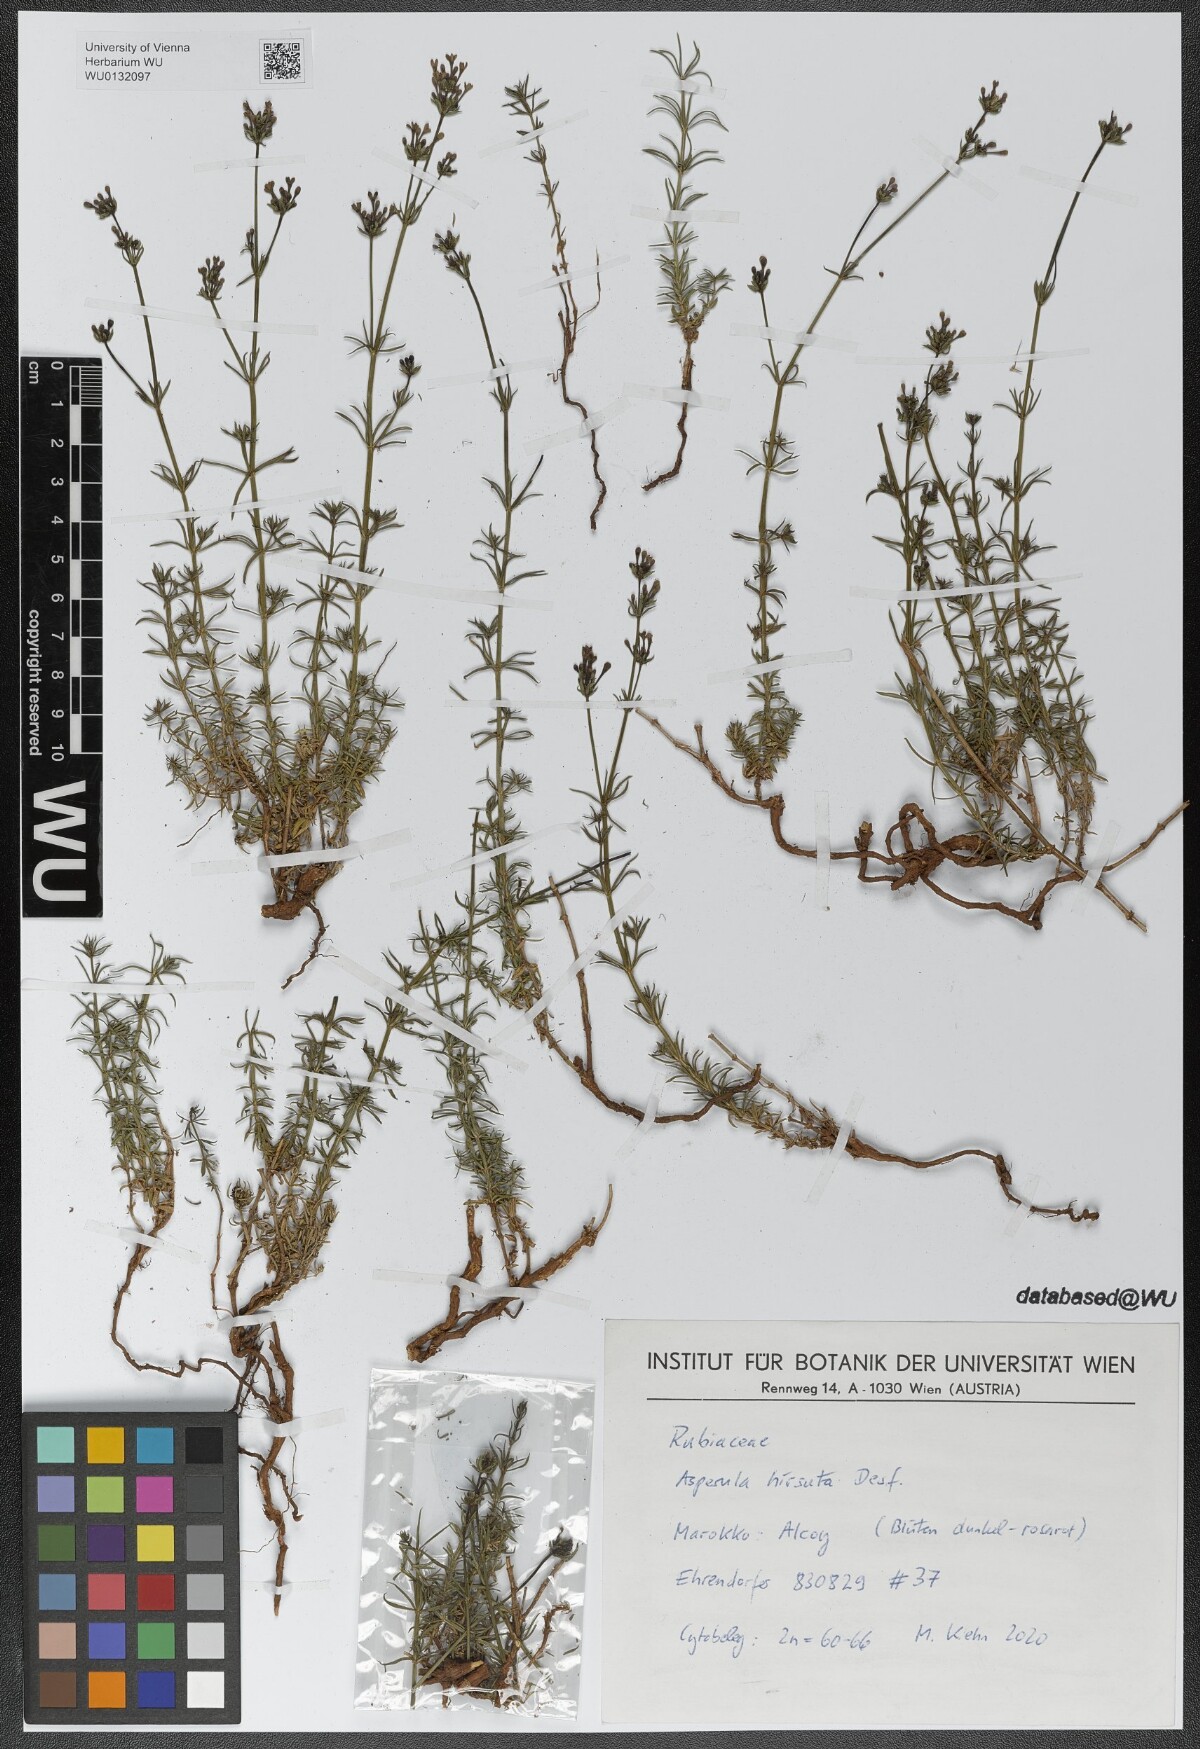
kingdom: Plantae
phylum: Tracheophyta
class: Magnoliopsida
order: Gentianales
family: Rubiaceae
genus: Hexaphylla
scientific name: Hexaphylla hirsuta
